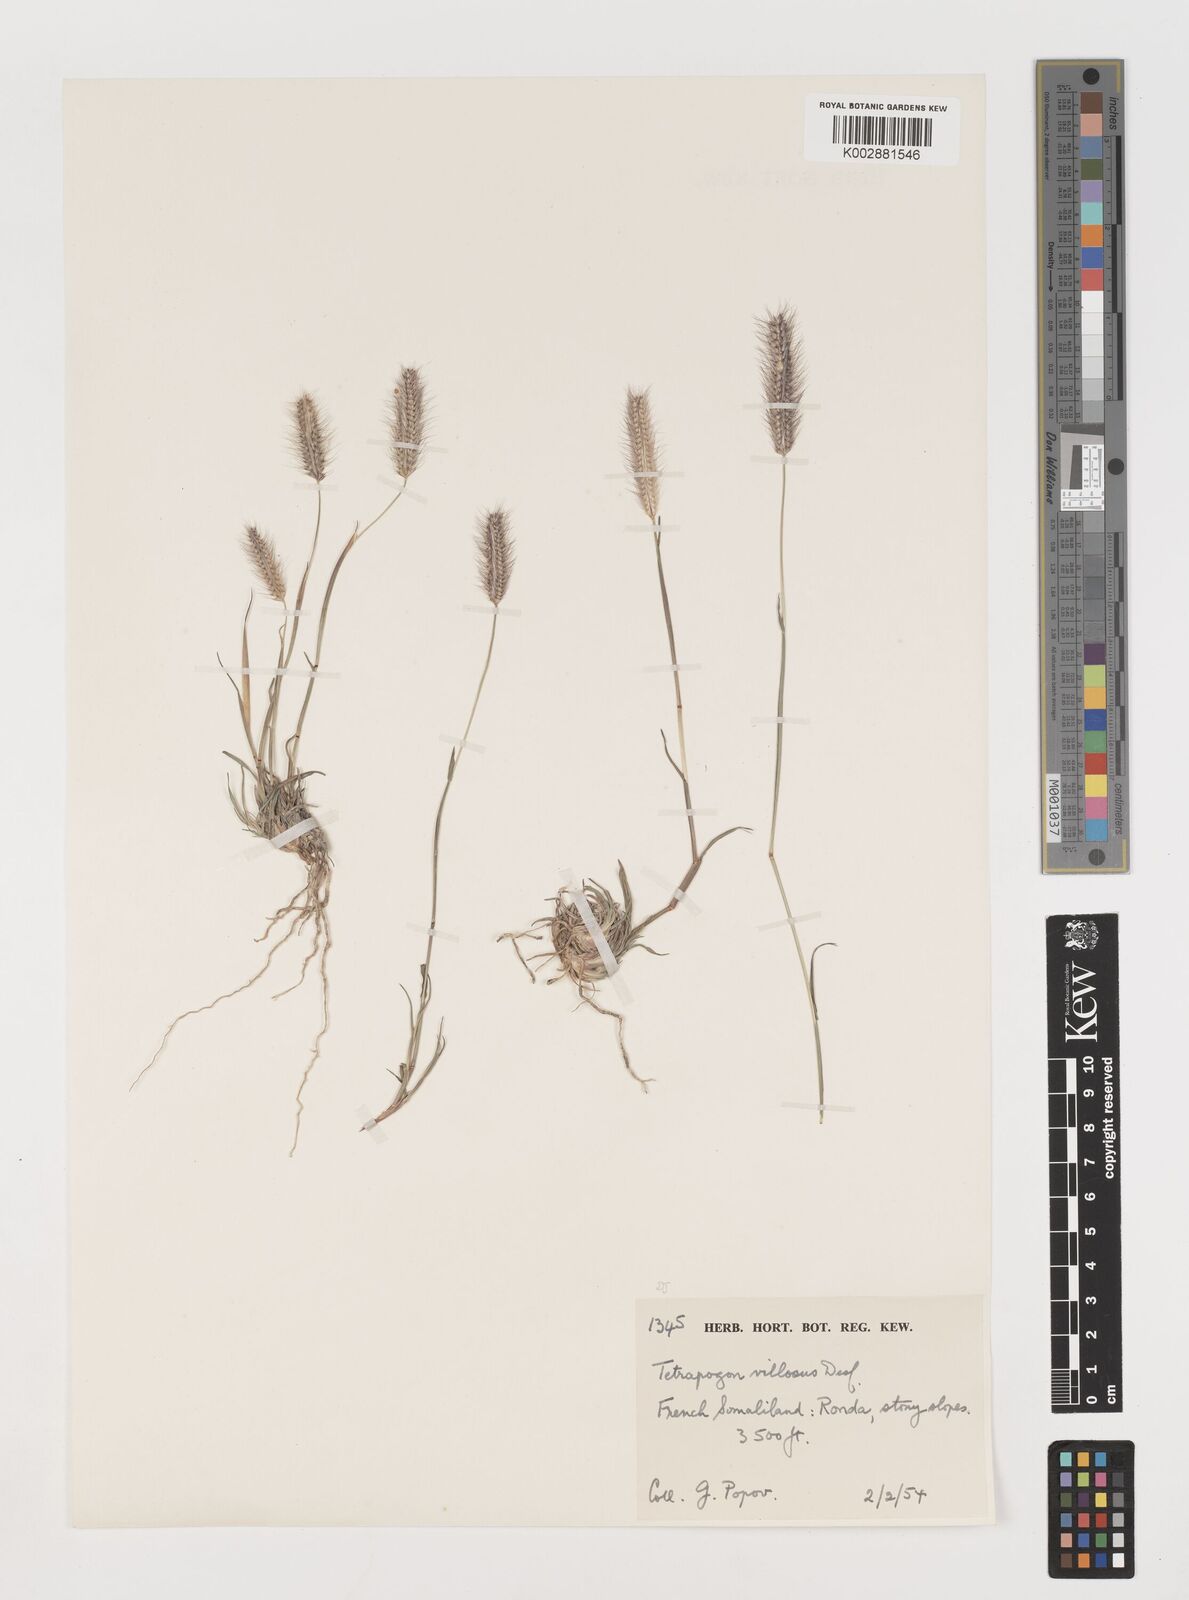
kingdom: Plantae
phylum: Tracheophyta
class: Liliopsida
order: Poales
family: Poaceae
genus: Tetrapogon
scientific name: Tetrapogon villosus
